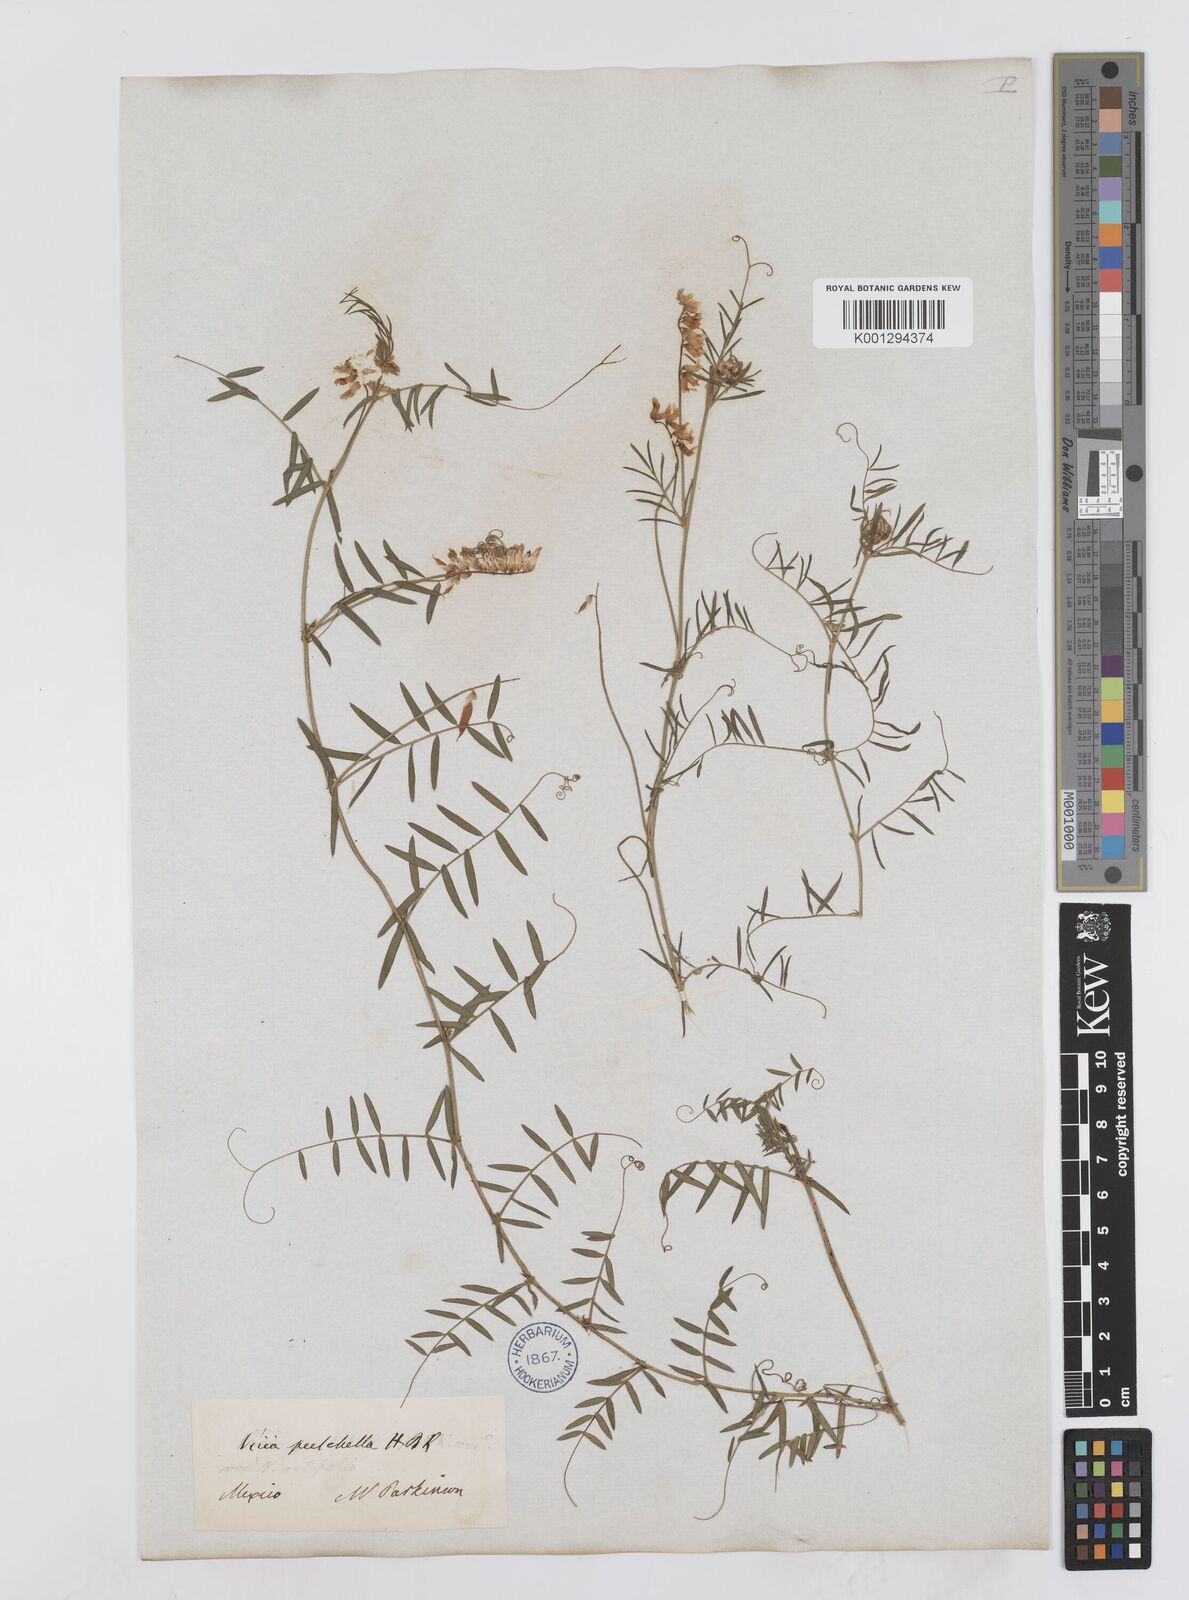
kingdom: Plantae
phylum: Tracheophyta
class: Magnoliopsida
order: Fabales
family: Fabaceae
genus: Vicia
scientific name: Vicia pulchella
